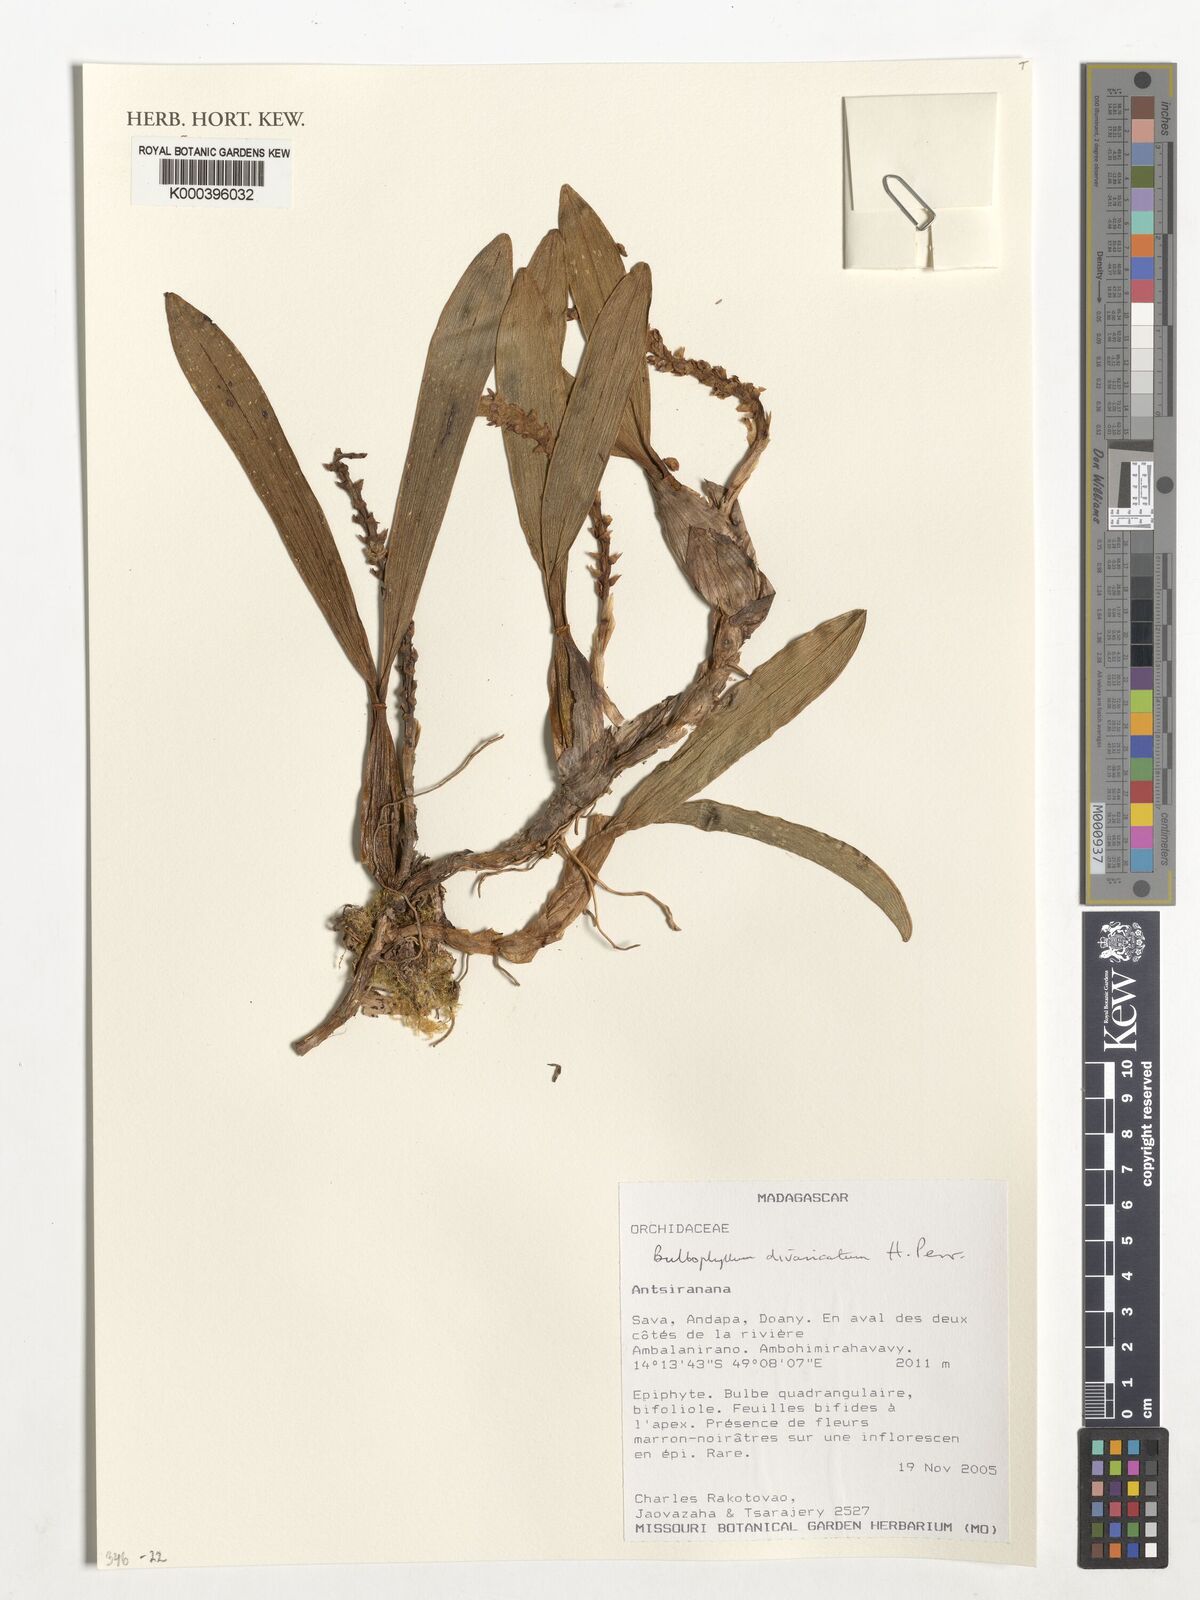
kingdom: Plantae
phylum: Tracheophyta
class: Liliopsida
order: Asparagales
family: Orchidaceae
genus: Bulbophyllum
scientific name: Bulbophyllum divaricatum
